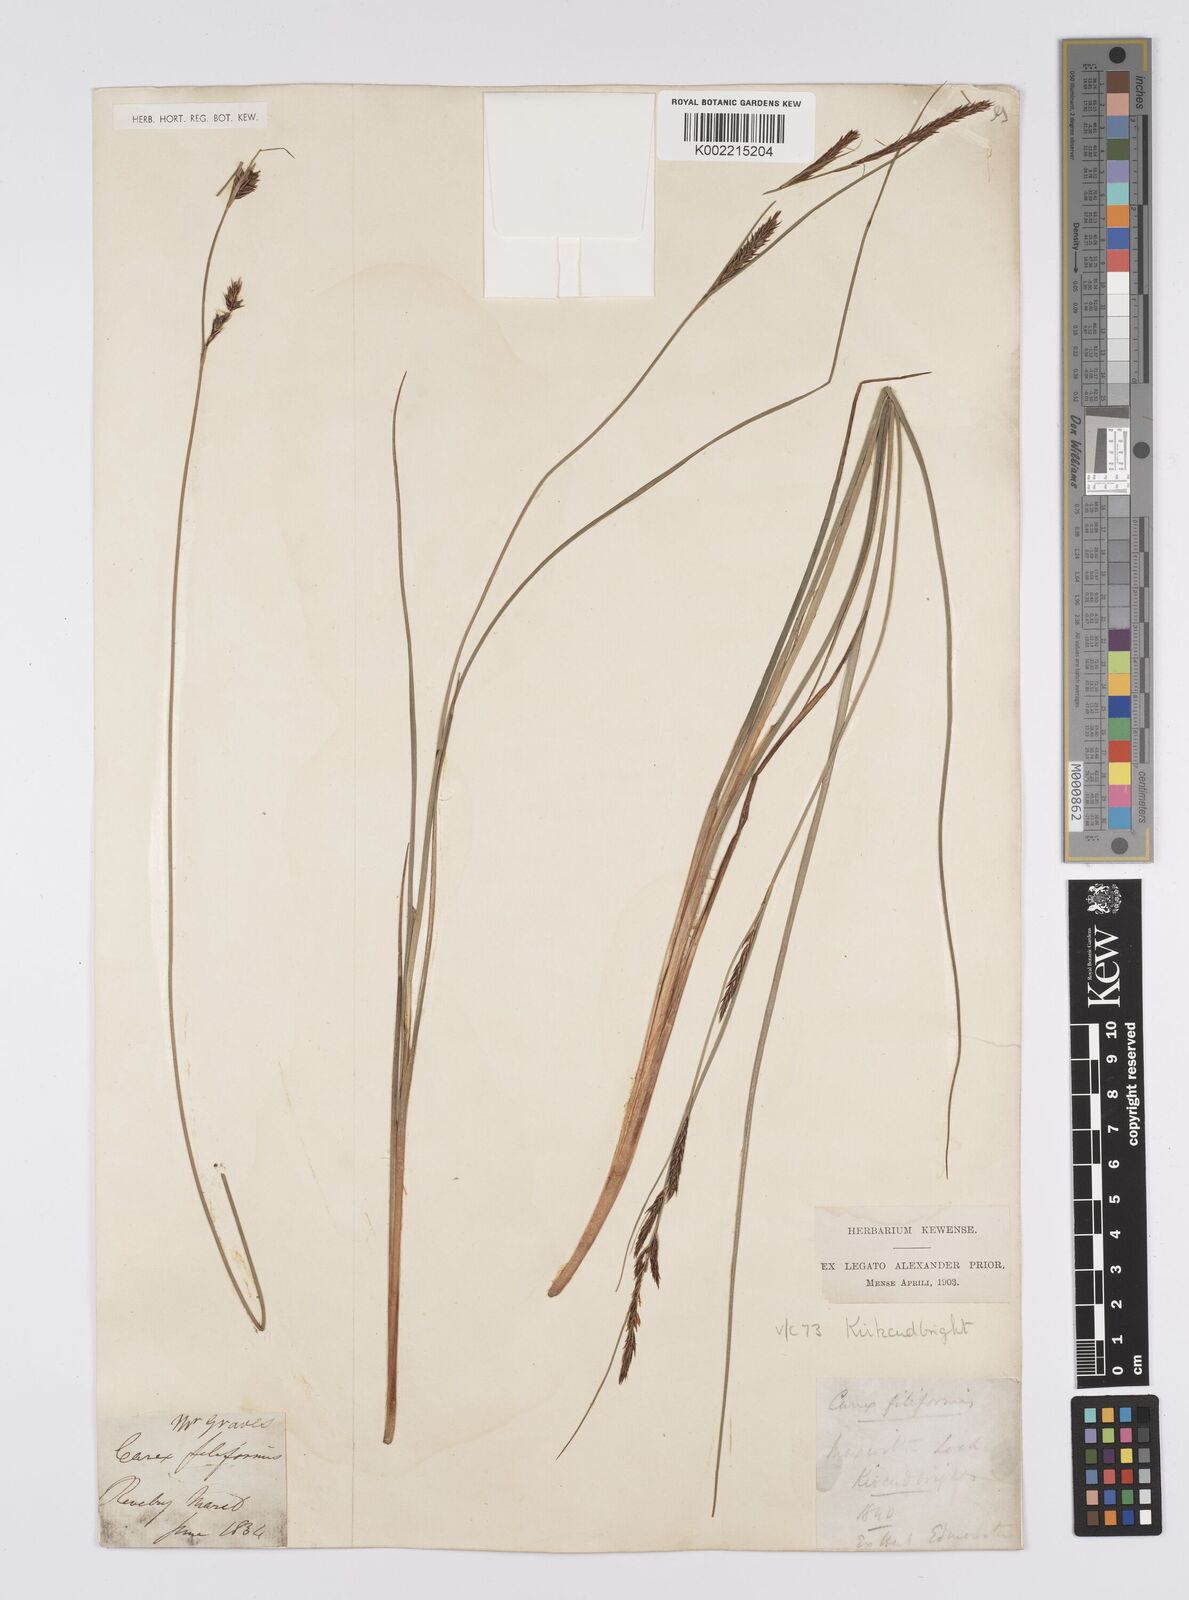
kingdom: Plantae
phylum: Tracheophyta
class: Liliopsida
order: Poales
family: Cyperaceae
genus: Carex
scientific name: Carex lasiocarpa
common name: Slender sedge
